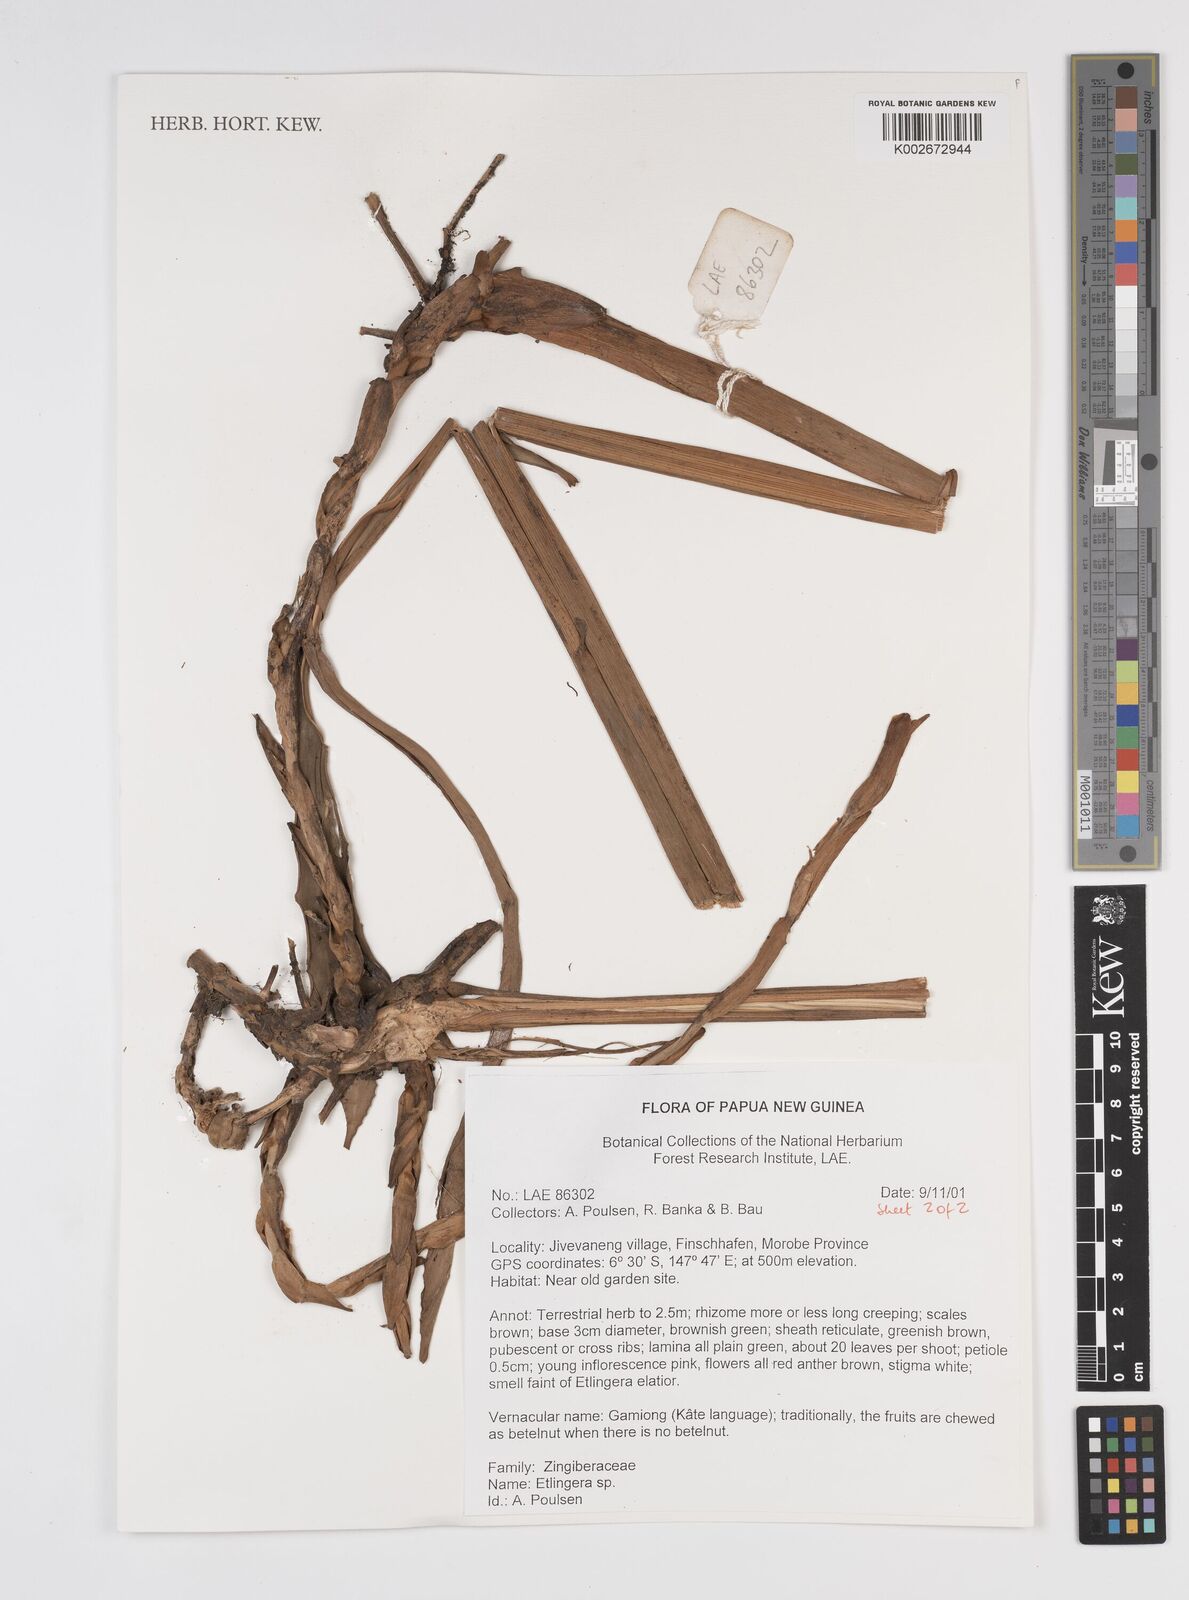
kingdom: Plantae
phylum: Tracheophyta
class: Liliopsida
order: Zingiberales
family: Zingiberaceae
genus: Etlingera
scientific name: Etlingera
